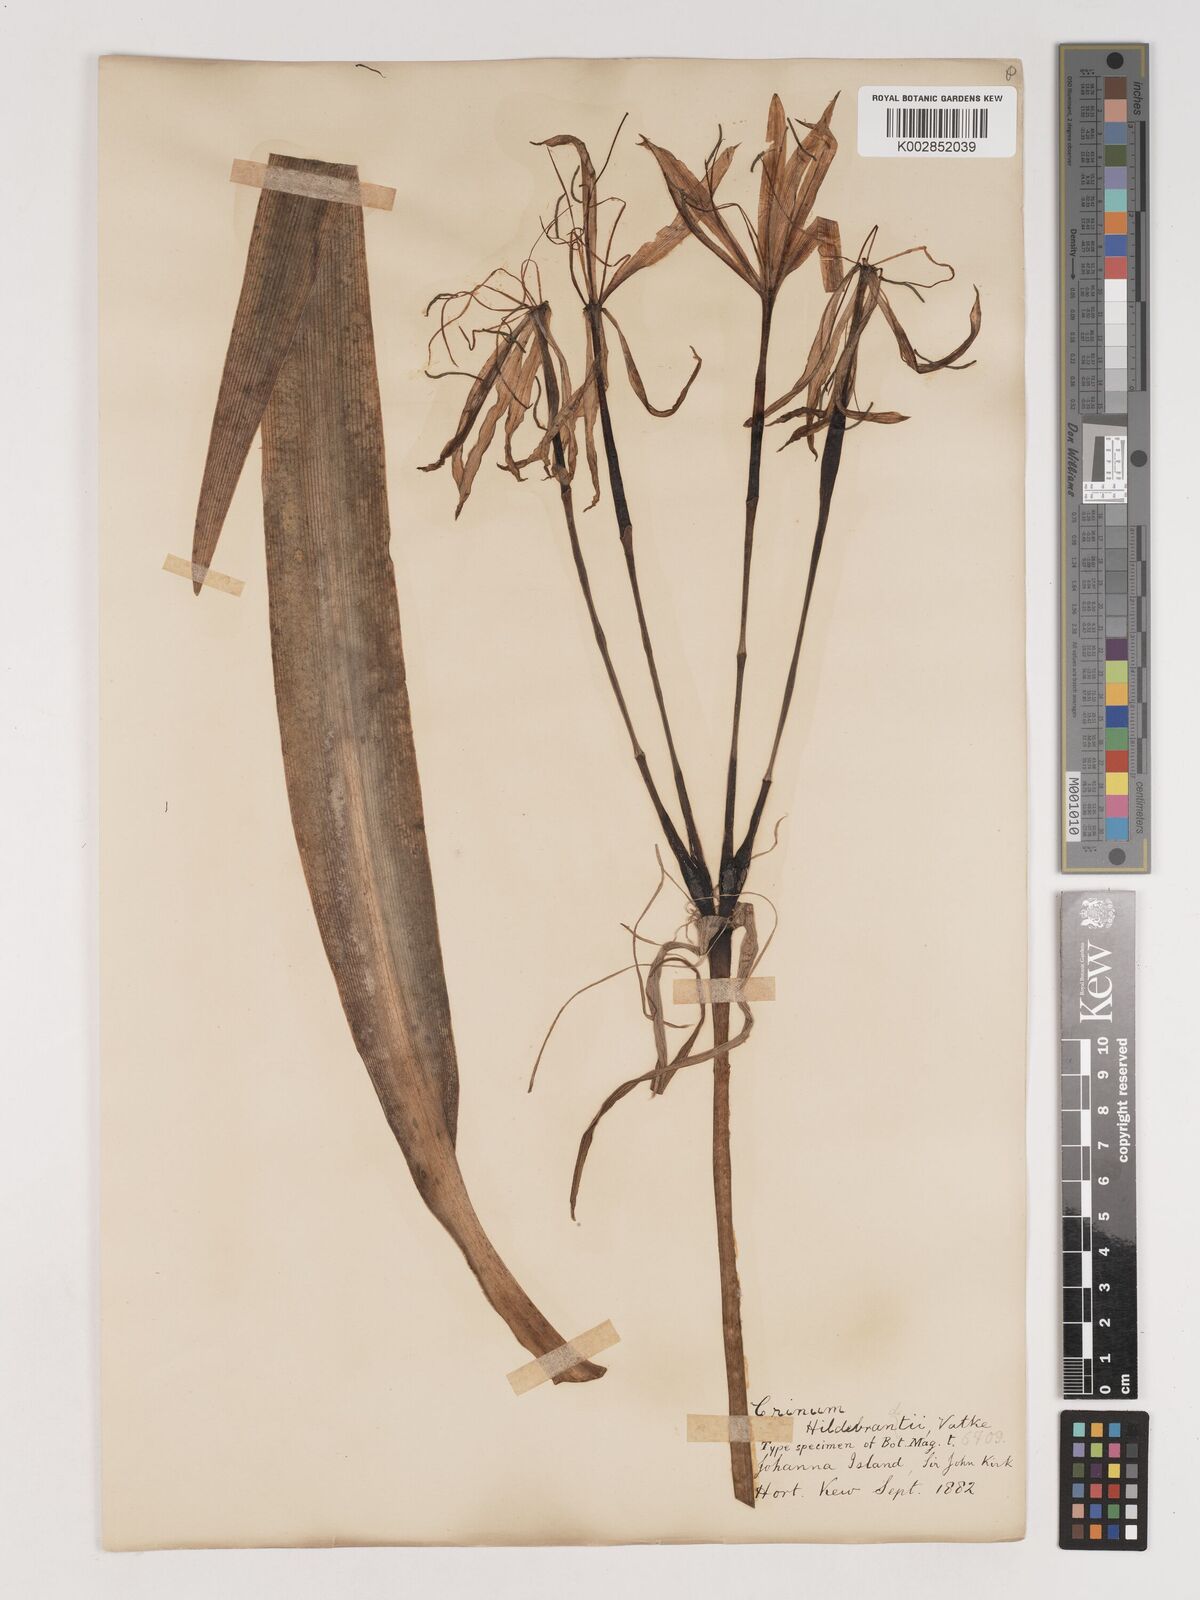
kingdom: Plantae
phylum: Tracheophyta
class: Liliopsida
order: Asparagales
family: Amaryllidaceae
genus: Crinum
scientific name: Crinum hildebrandtii
